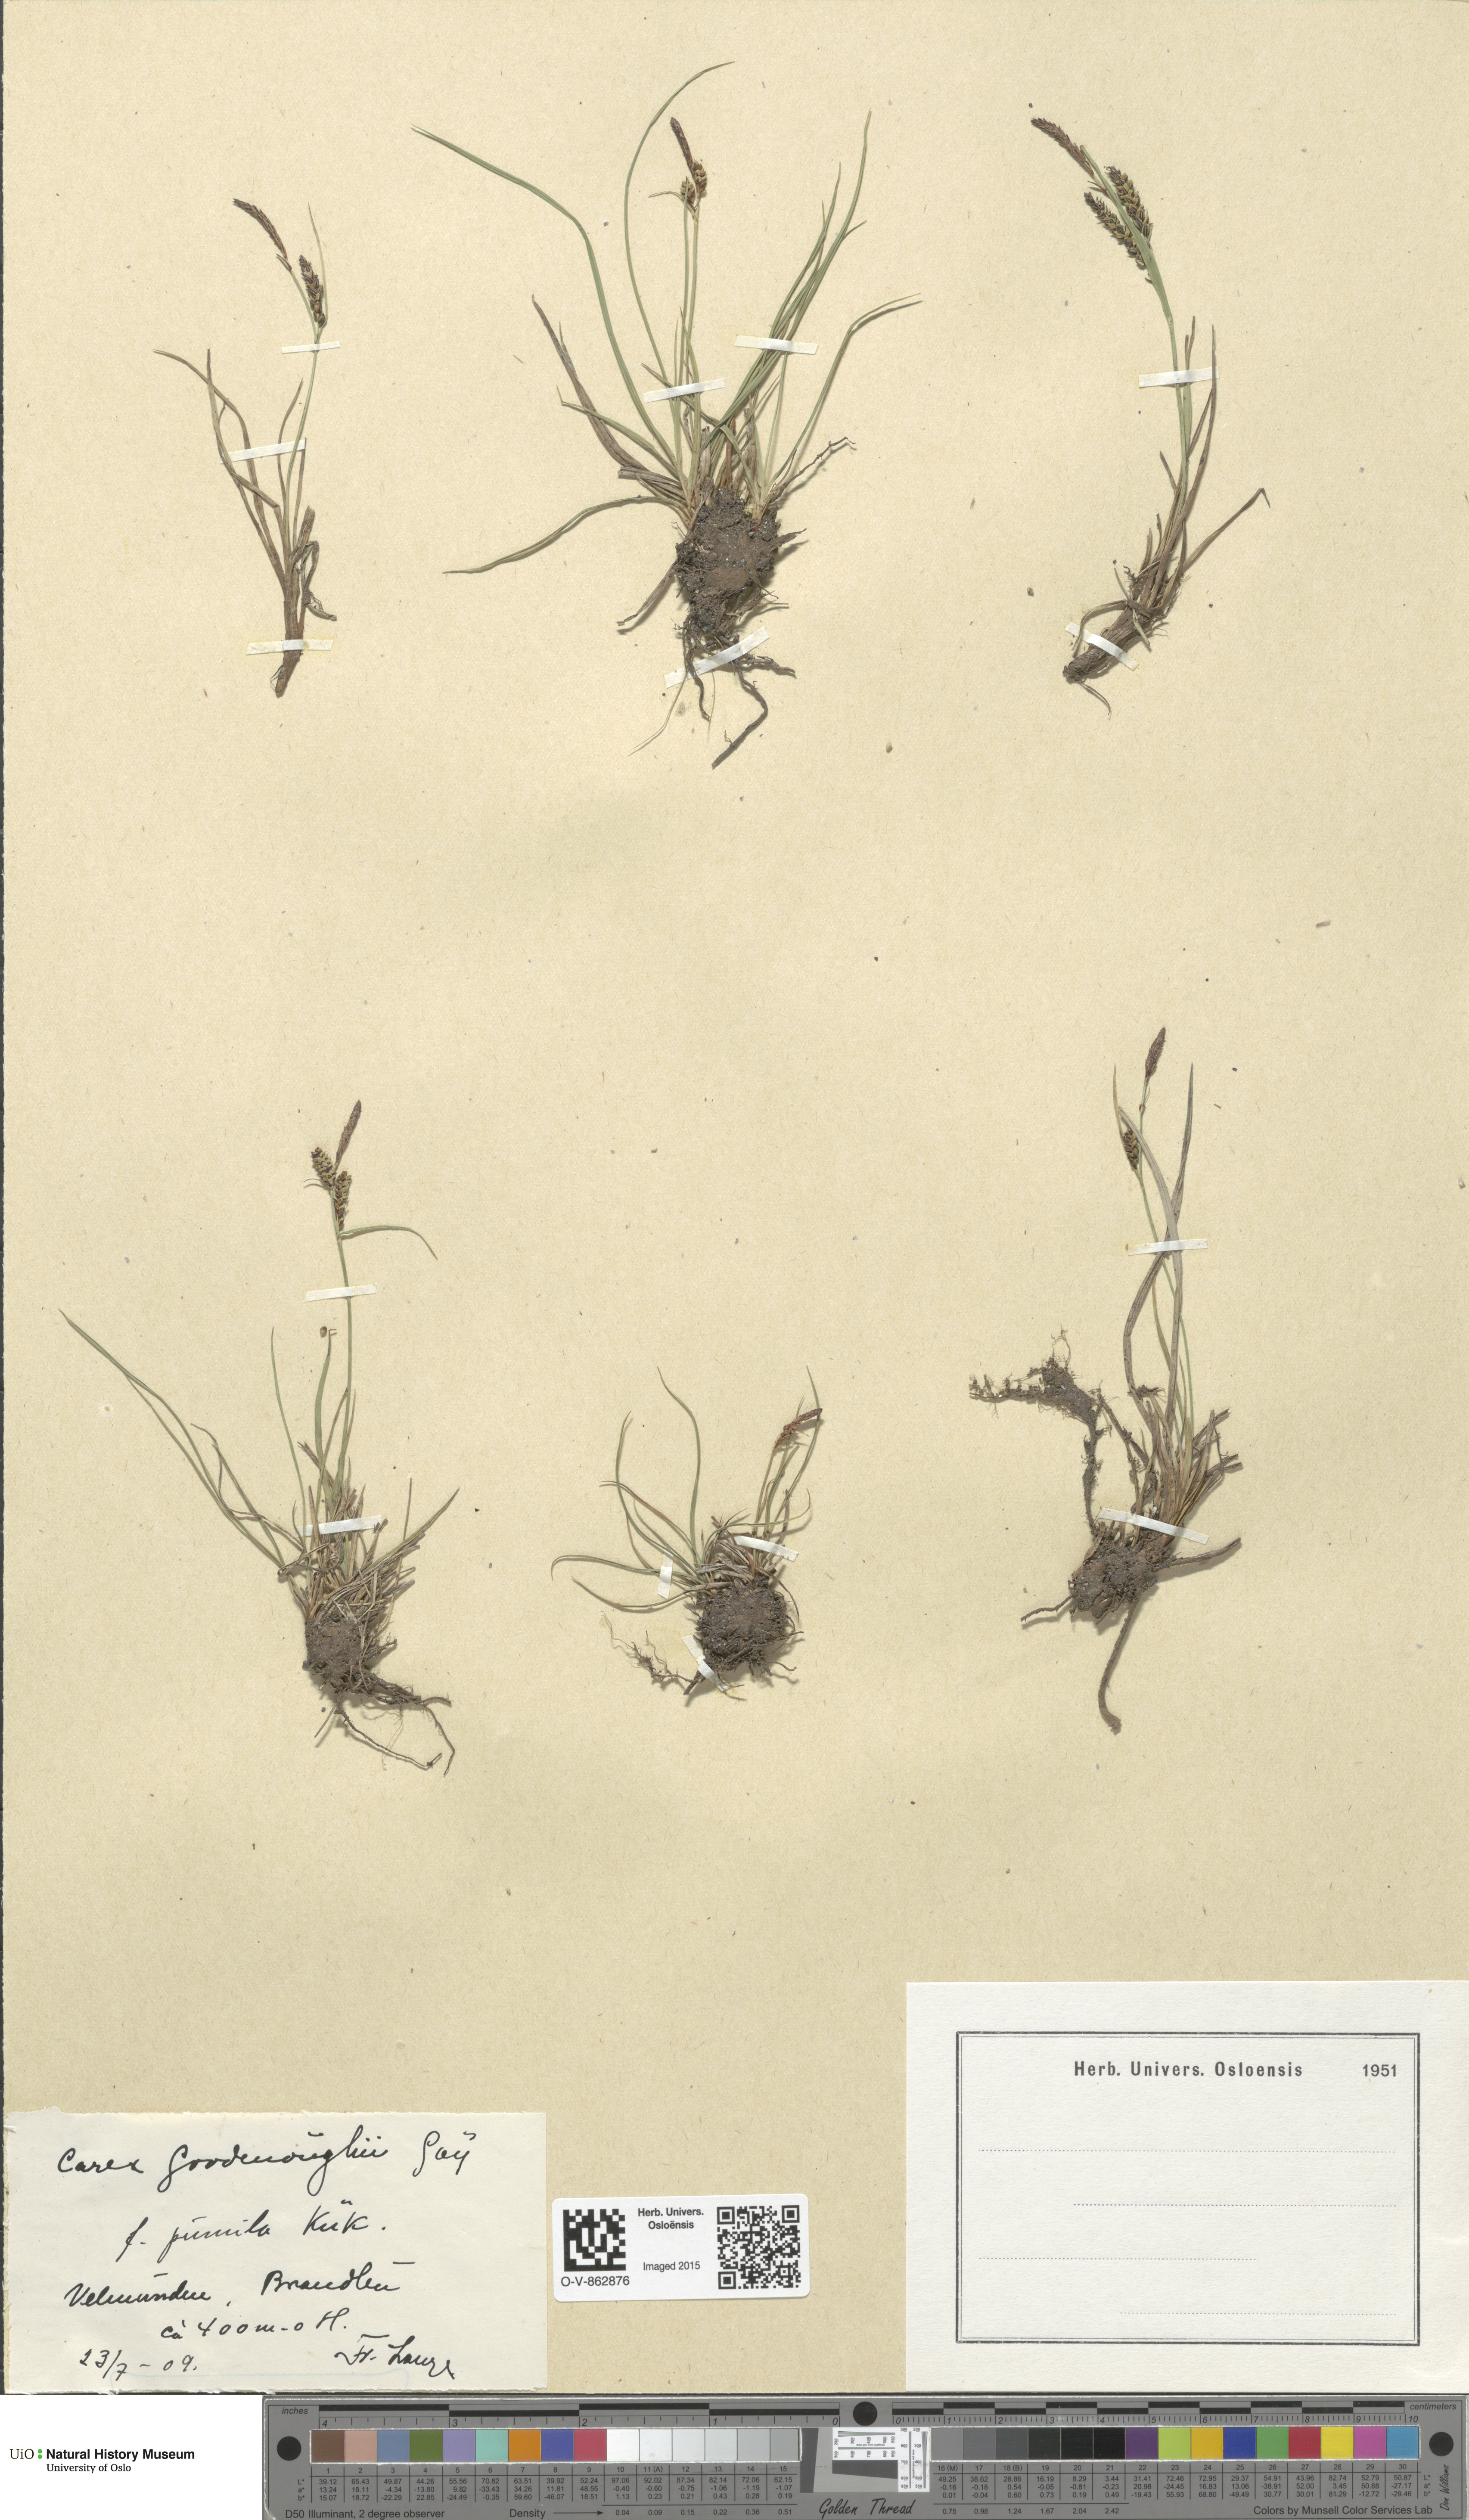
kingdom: Plantae
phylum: Tracheophyta
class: Liliopsida
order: Poales
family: Cyperaceae
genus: Carex
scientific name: Carex nigra
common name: Common sedge
